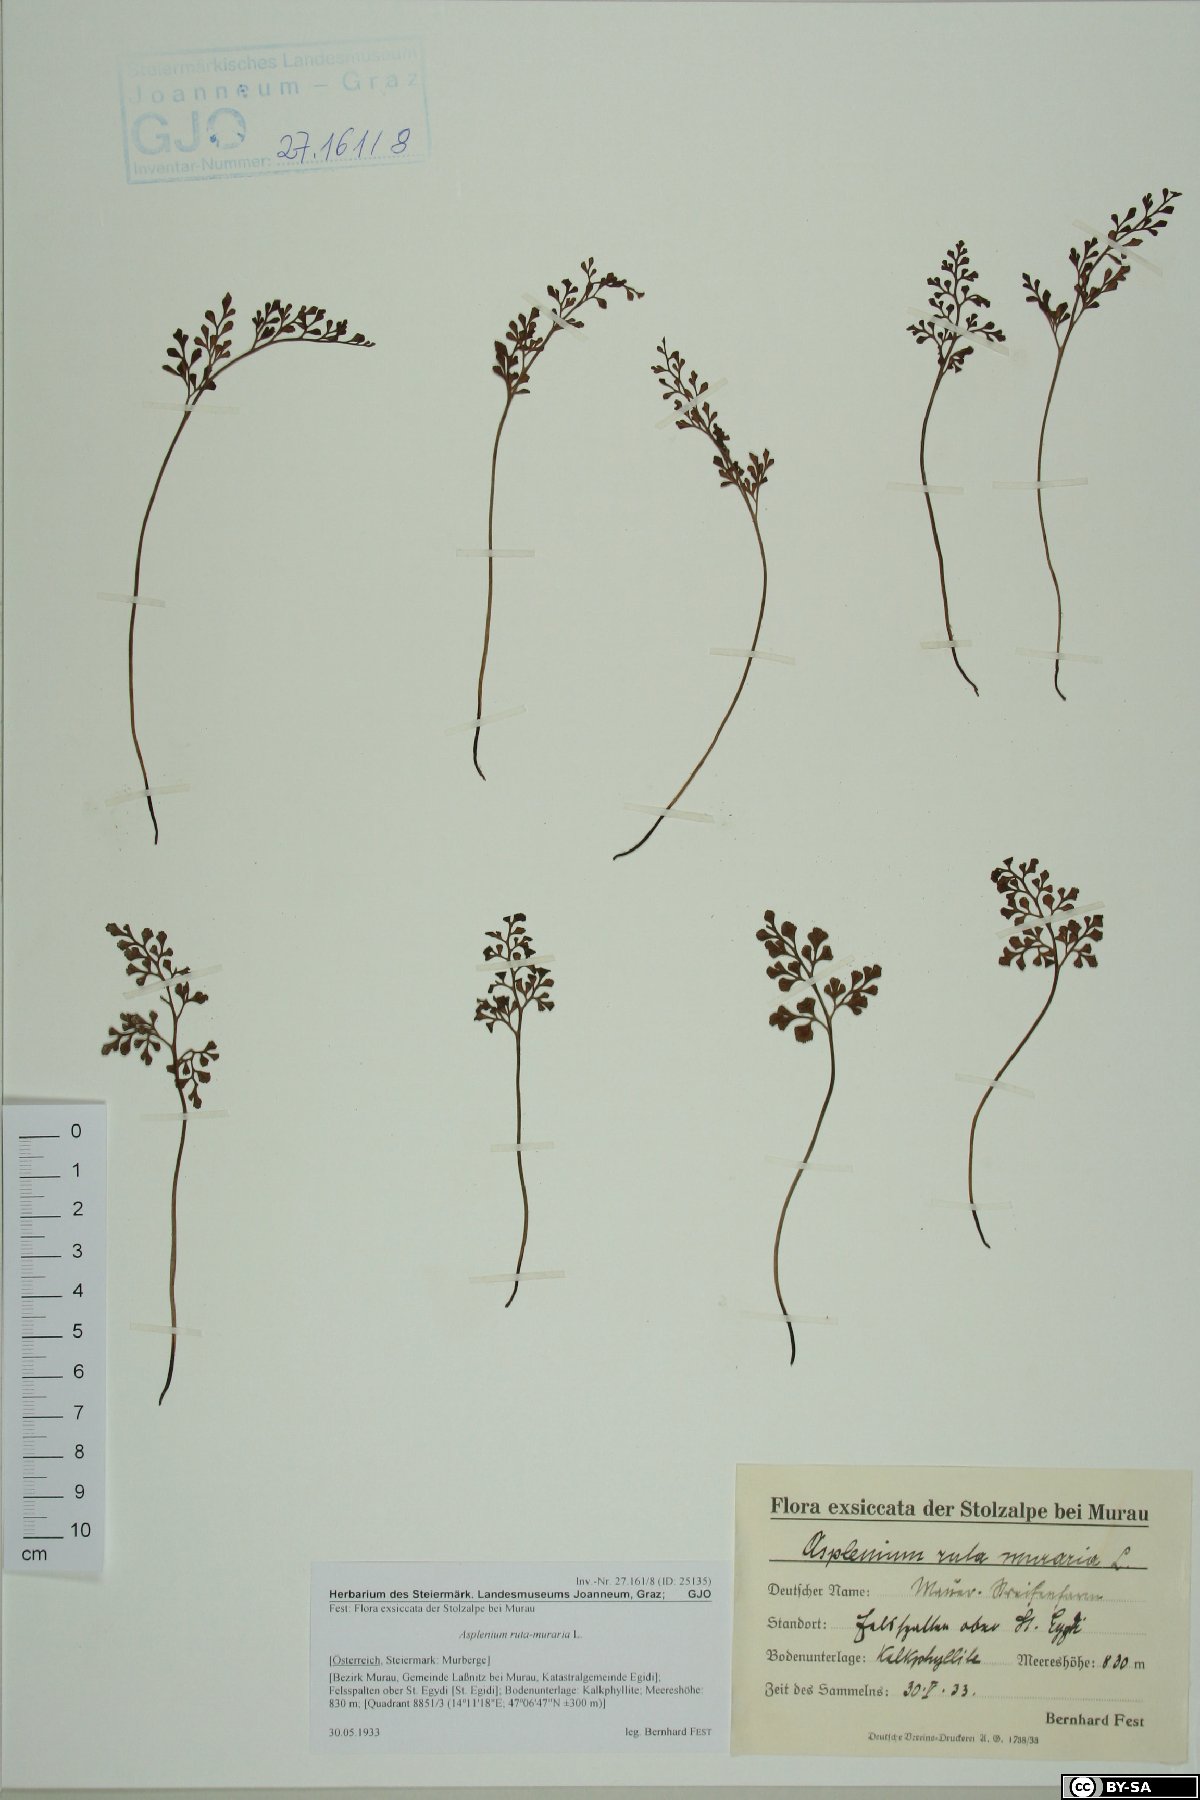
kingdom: Plantae
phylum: Tracheophyta
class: Polypodiopsida
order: Polypodiales
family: Aspleniaceae
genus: Asplenium
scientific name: Asplenium ruta-muraria
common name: Wall-rue
